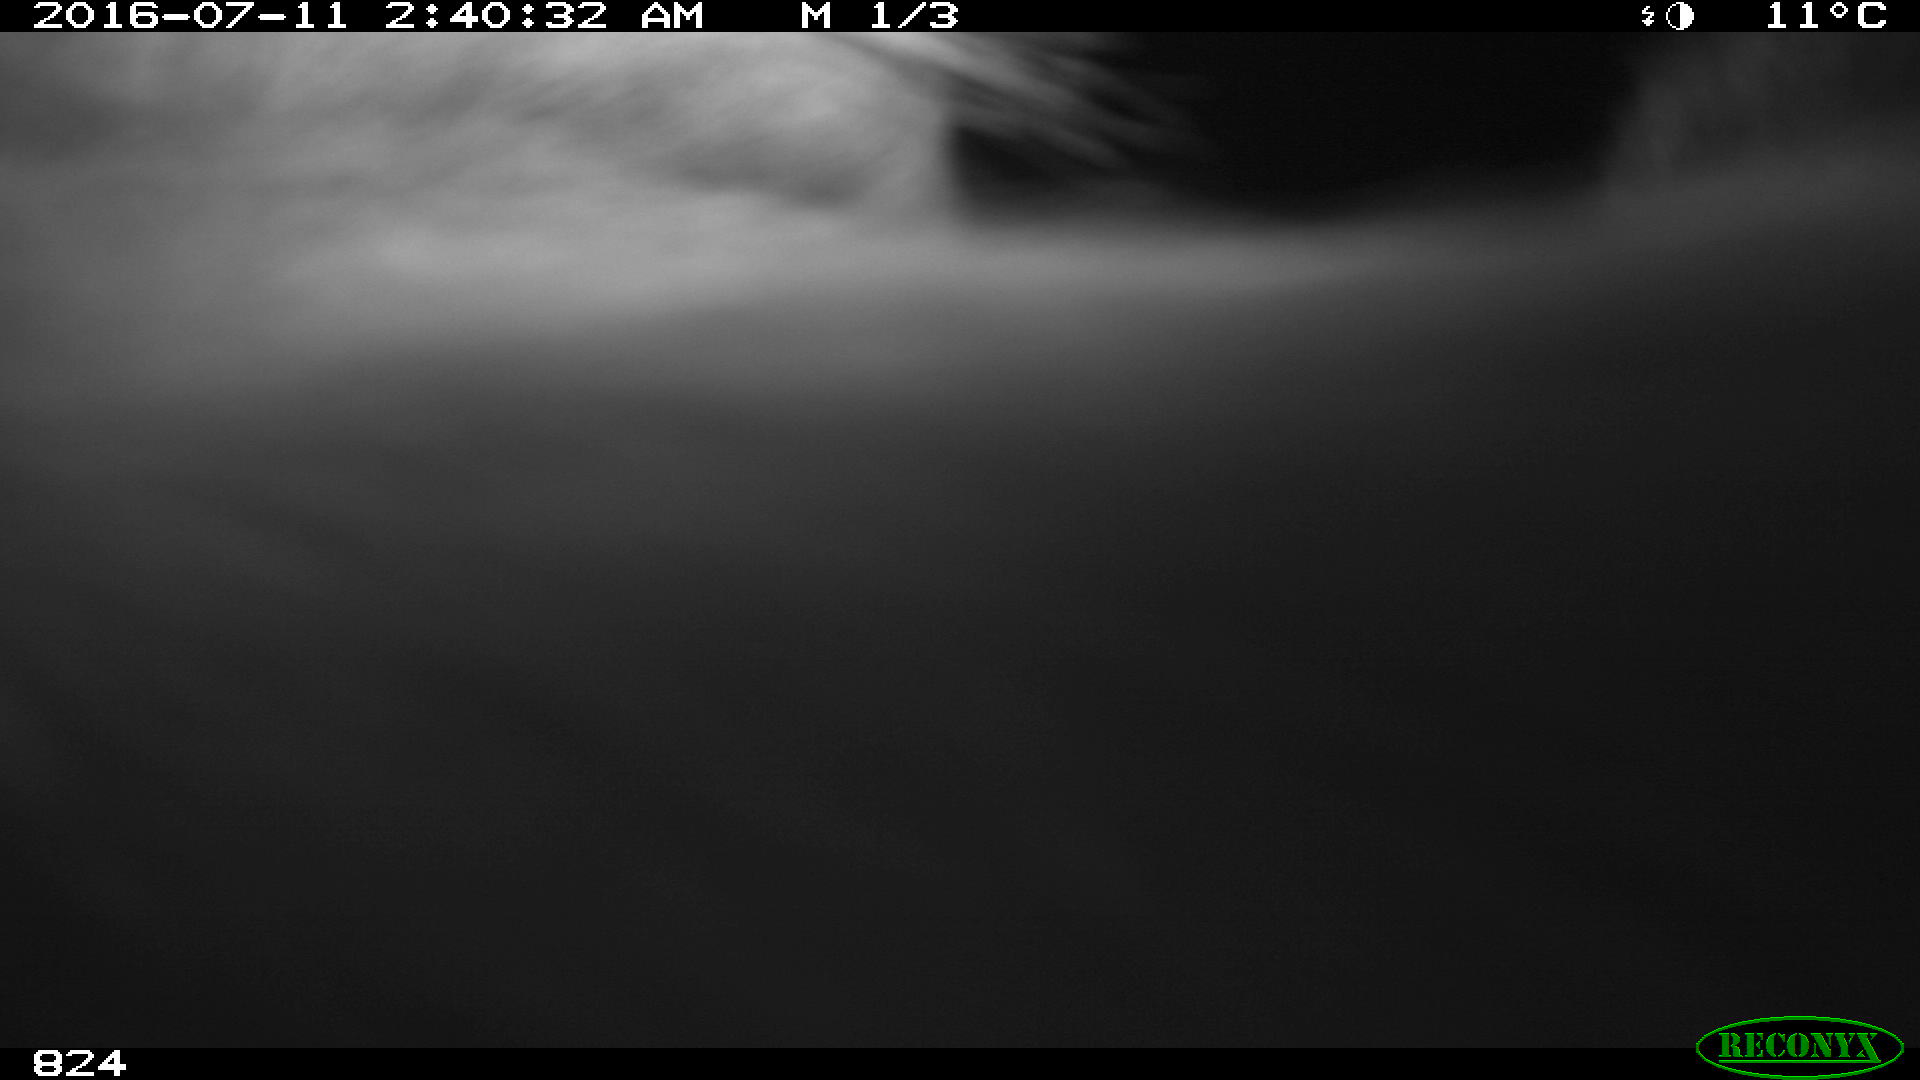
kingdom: Animalia
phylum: Chordata
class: Mammalia
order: Artiodactyla
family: Bovidae
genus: Bos
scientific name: Bos taurus
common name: Domesticated cattle
